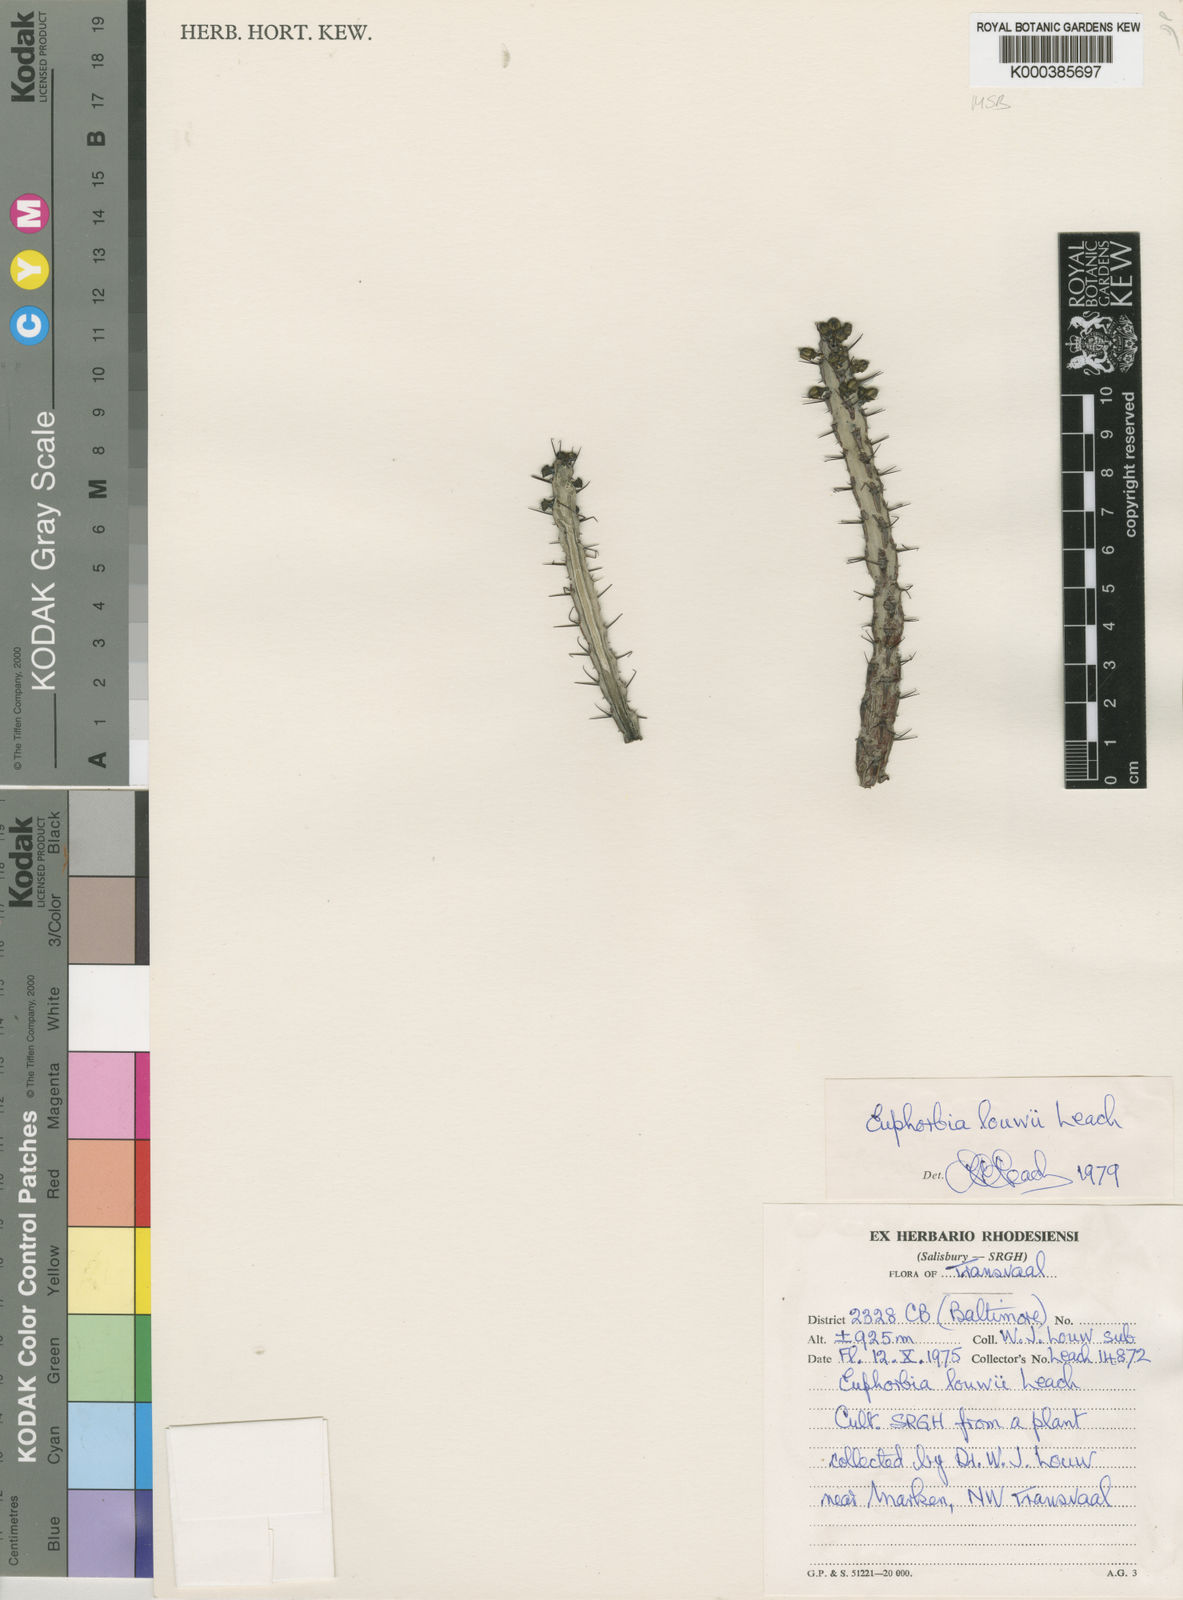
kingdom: Plantae
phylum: Tracheophyta
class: Magnoliopsida
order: Malpighiales
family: Euphorbiaceae
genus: Euphorbia
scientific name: Euphorbia louwii
